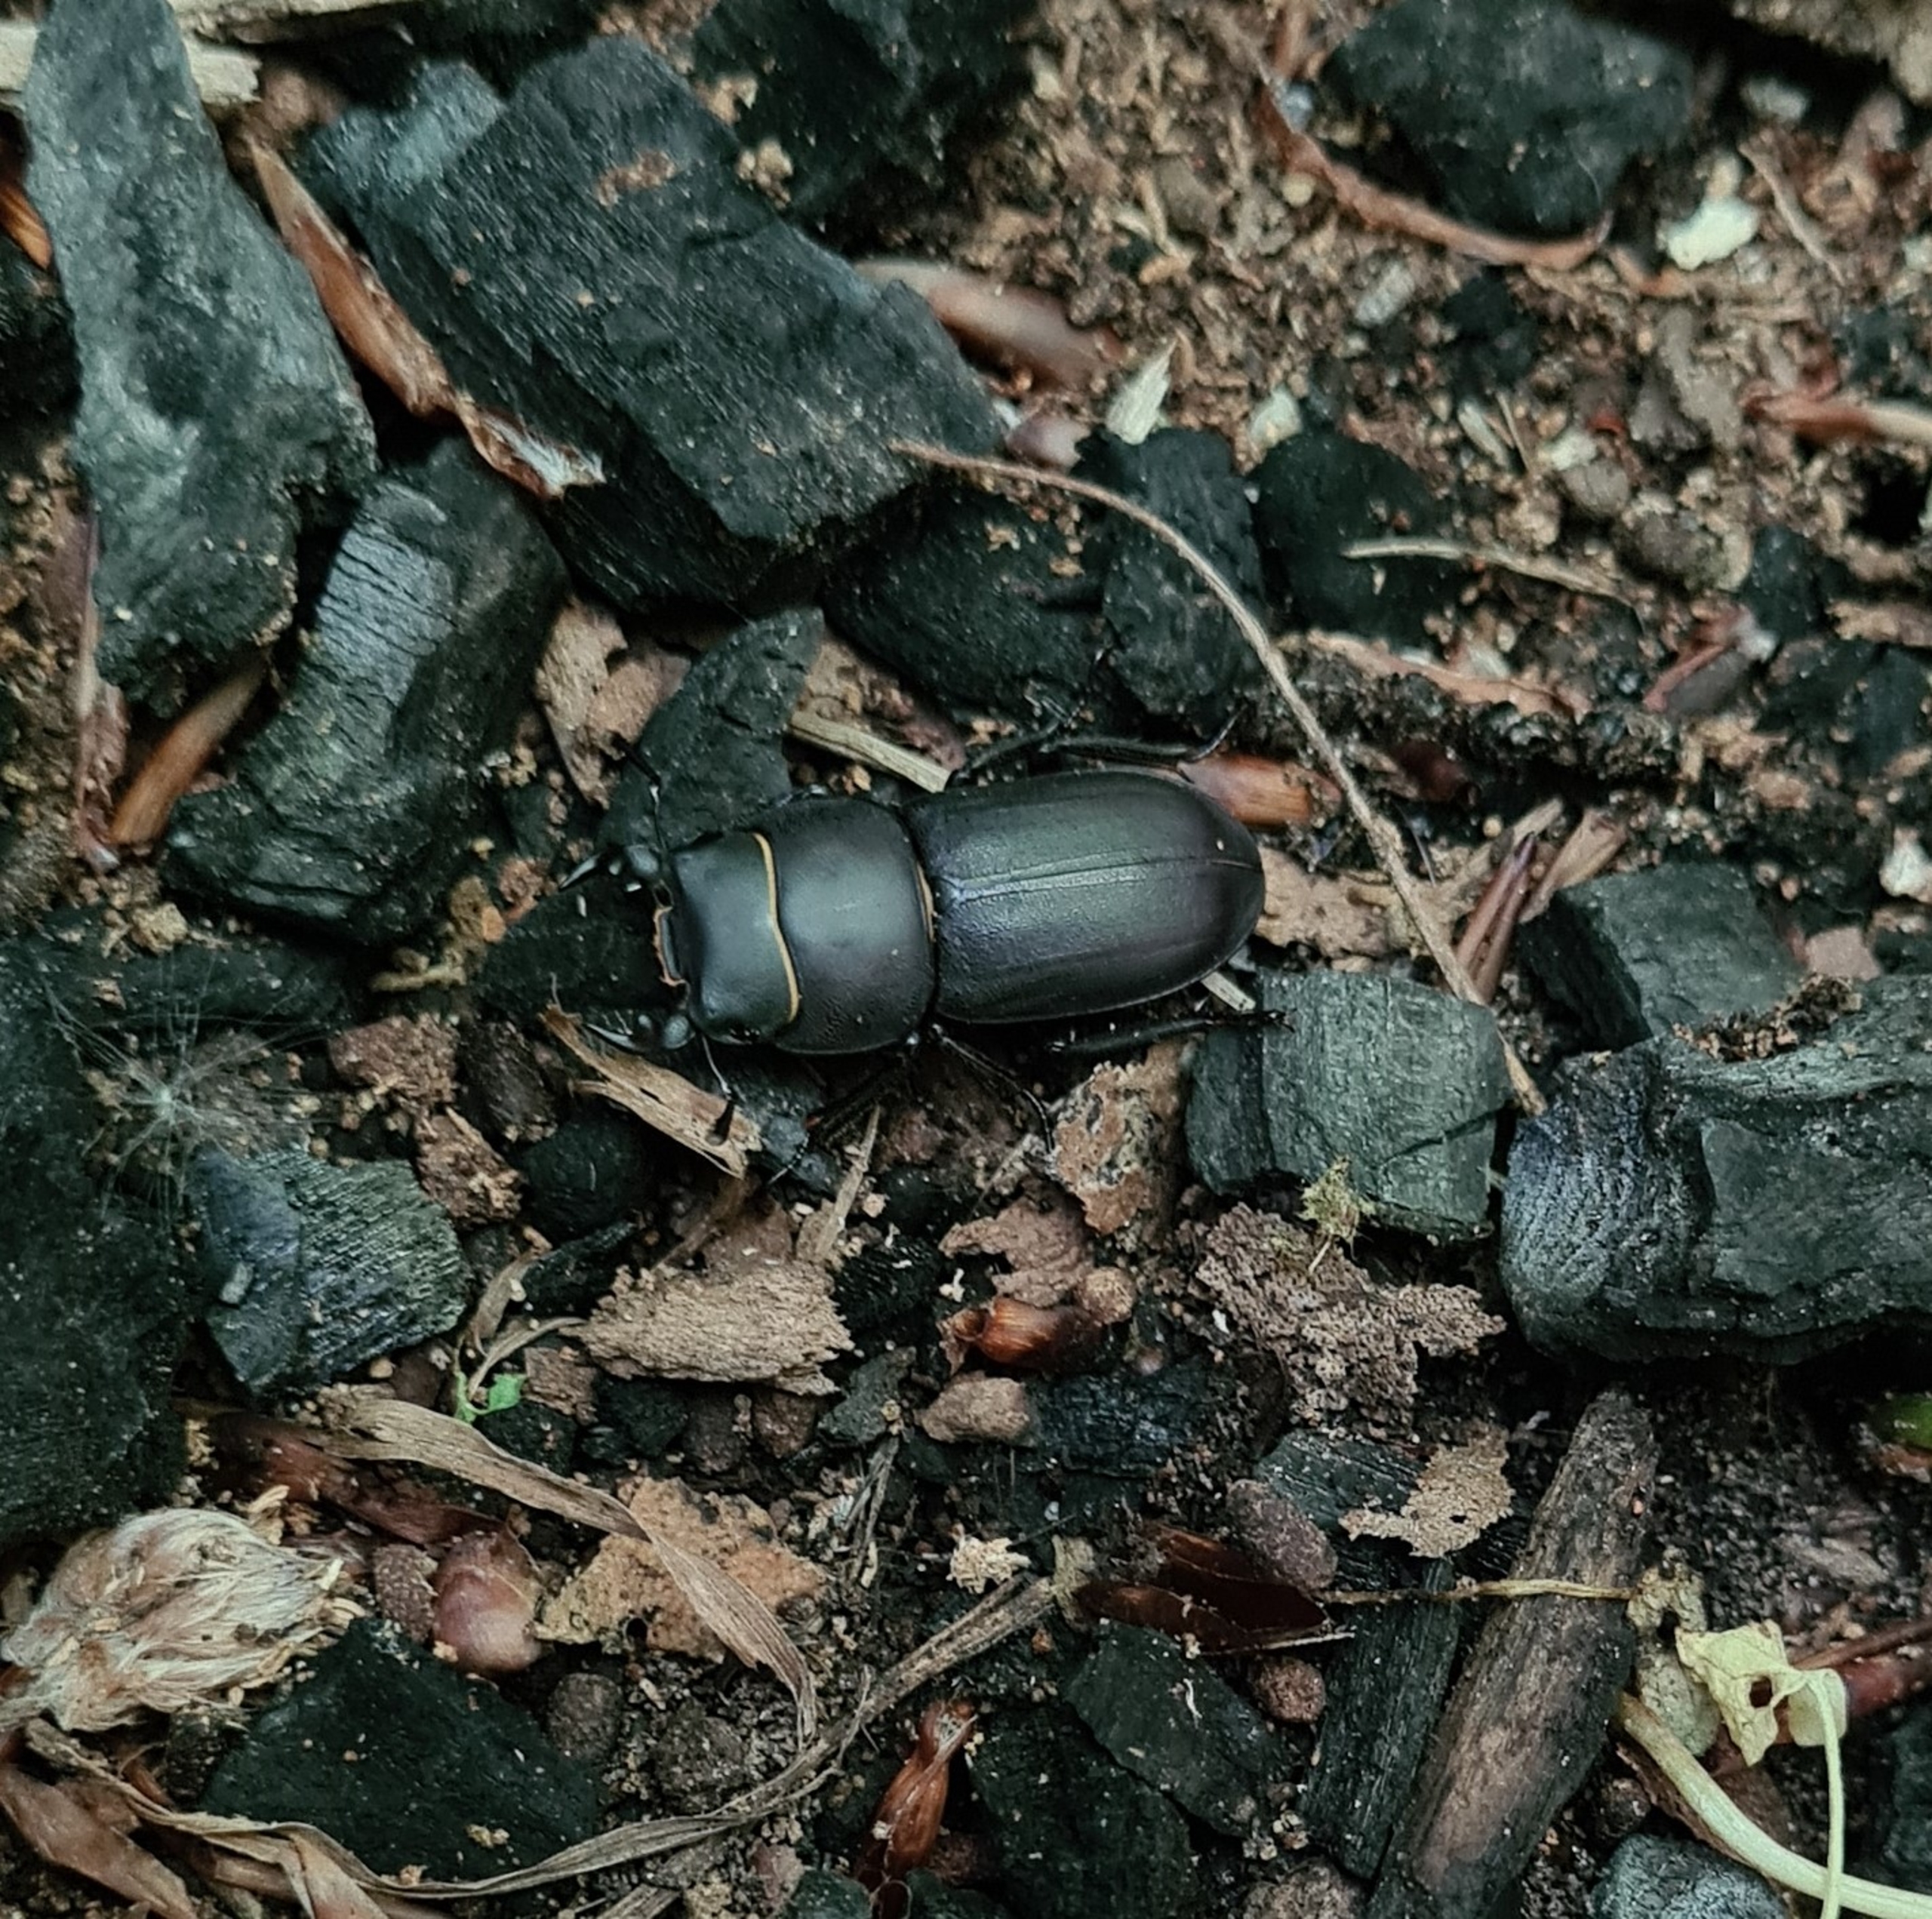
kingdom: Animalia
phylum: Arthropoda
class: Insecta
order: Coleoptera
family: Lucanidae
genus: Dorcus
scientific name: Dorcus parallelipipedus
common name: Bøghjort
